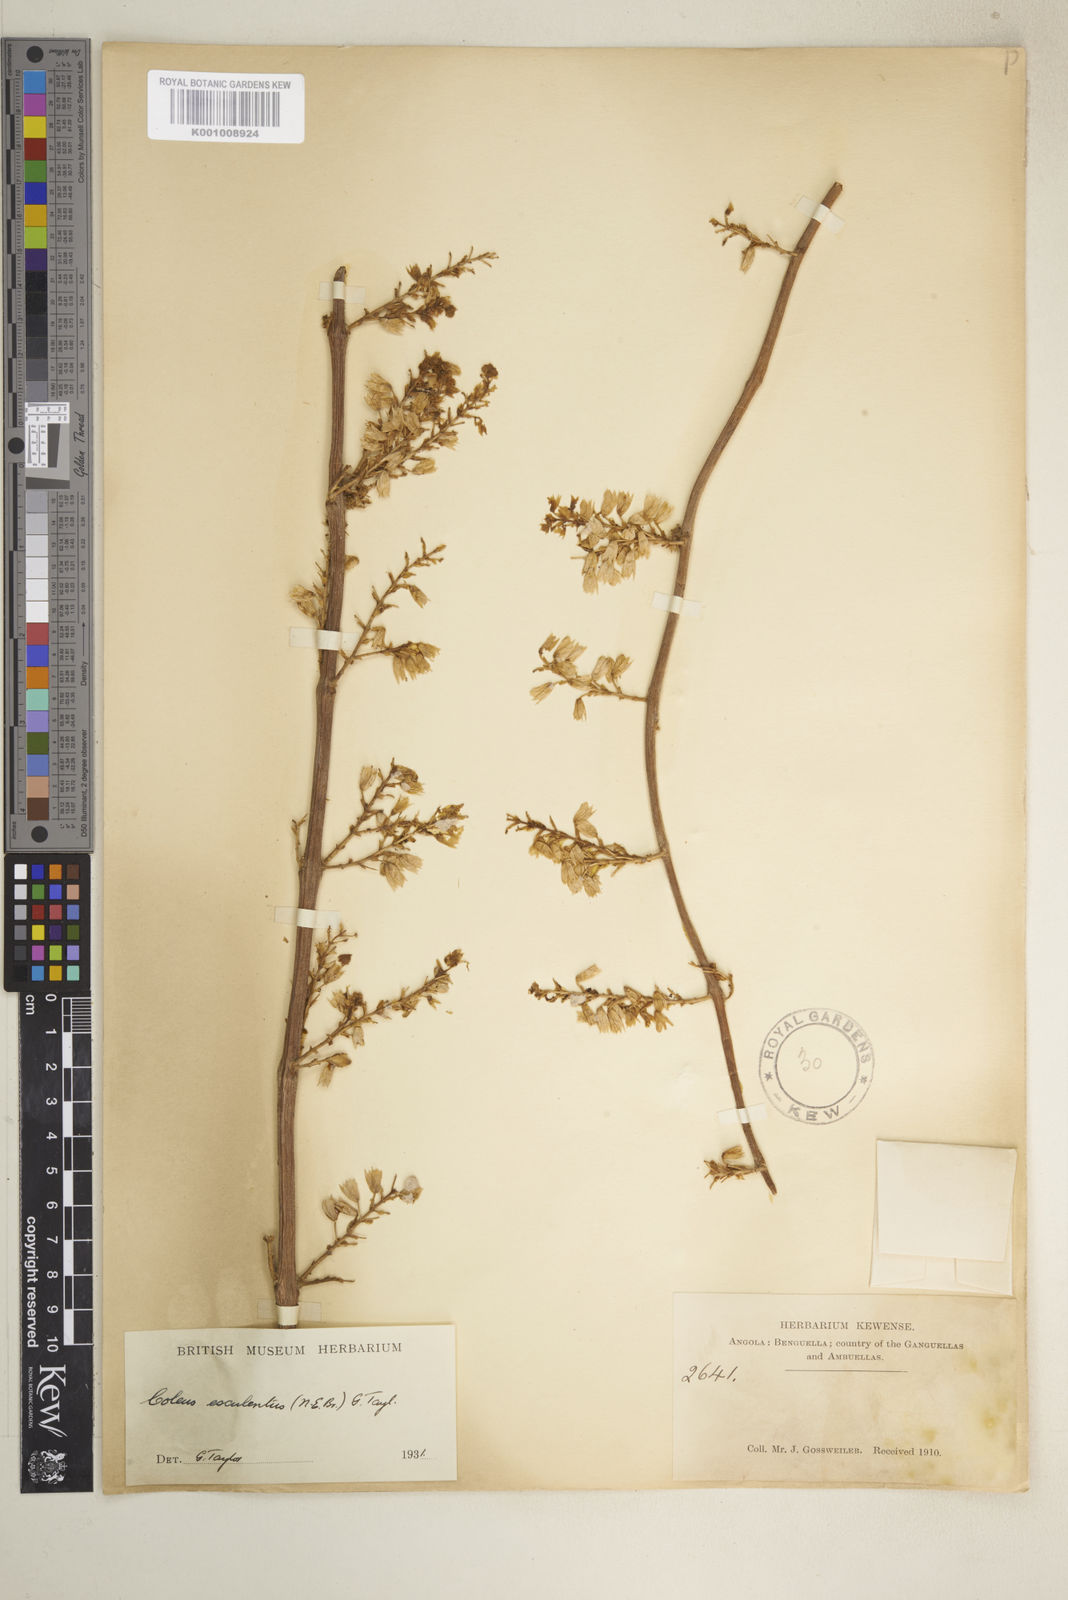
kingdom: Plantae
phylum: Tracheophyta
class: Magnoliopsida
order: Lamiales
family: Lamiaceae
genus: Coleus
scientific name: Coleus esculentus
